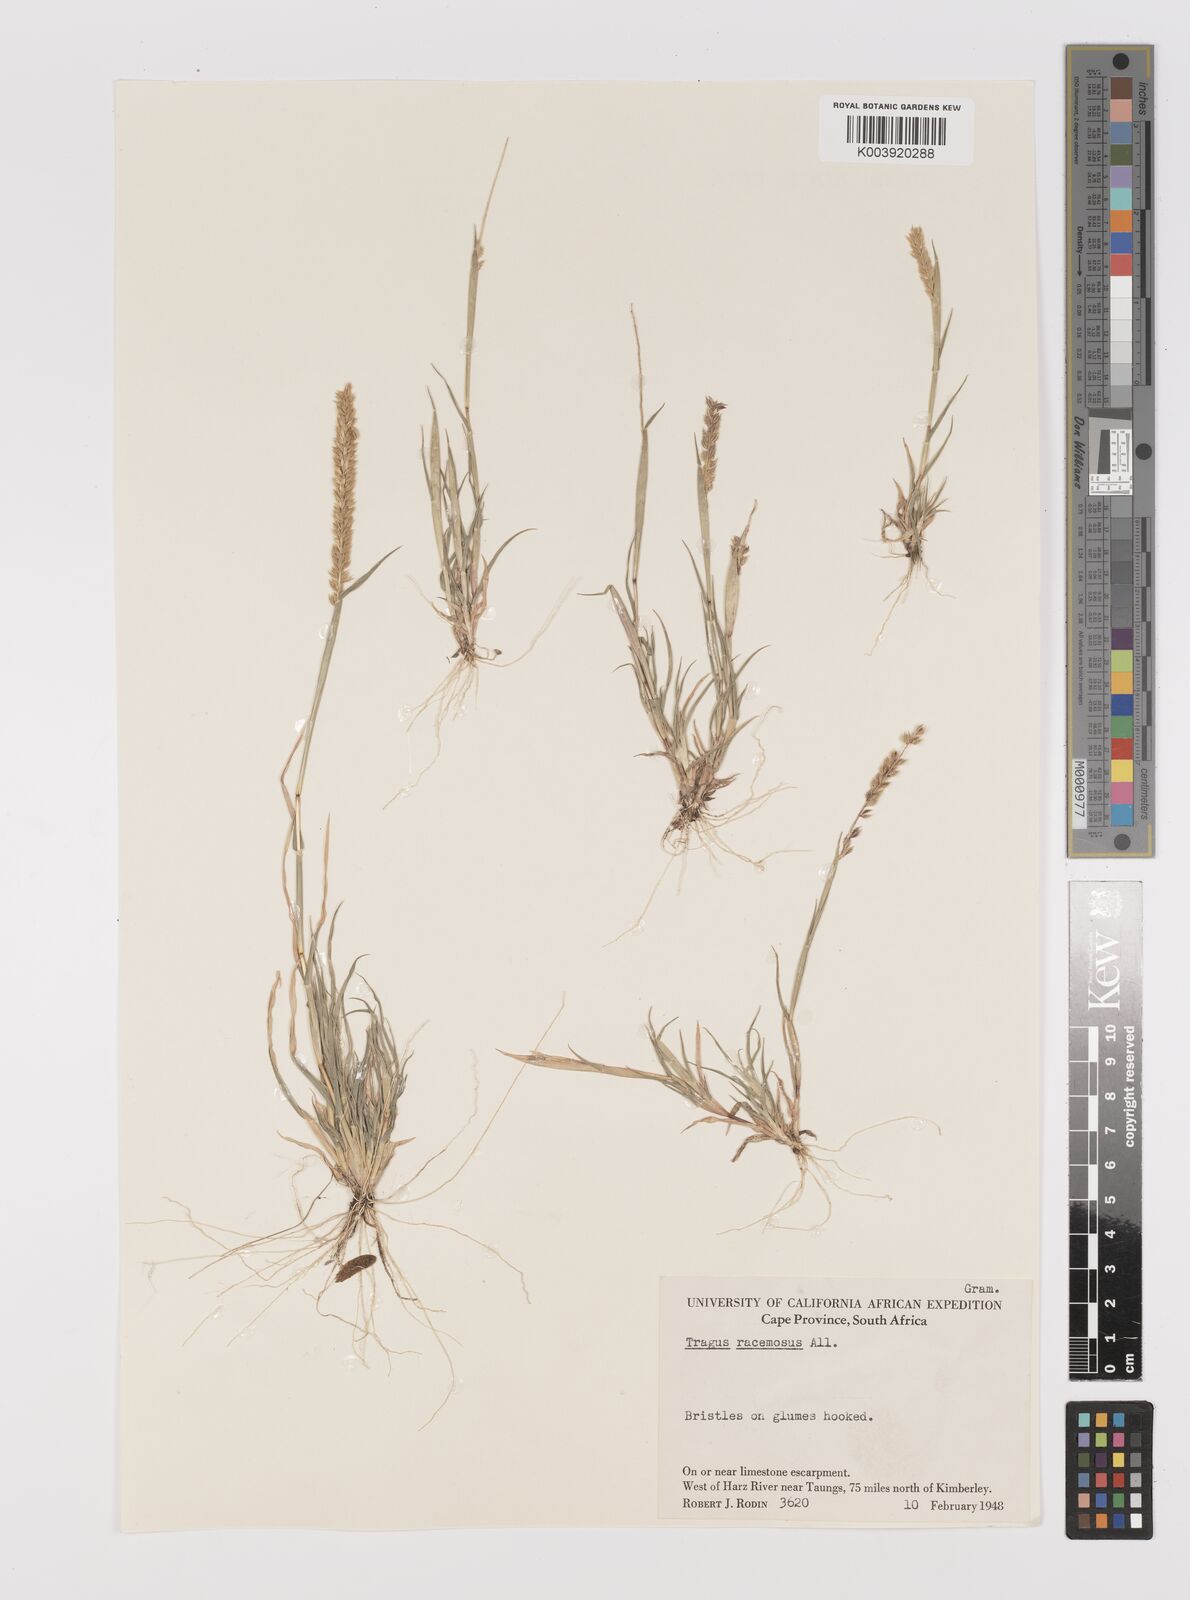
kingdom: Plantae
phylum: Tracheophyta
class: Liliopsida
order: Poales
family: Poaceae
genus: Tragus
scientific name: Tragus racemosus
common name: European bur-grass
